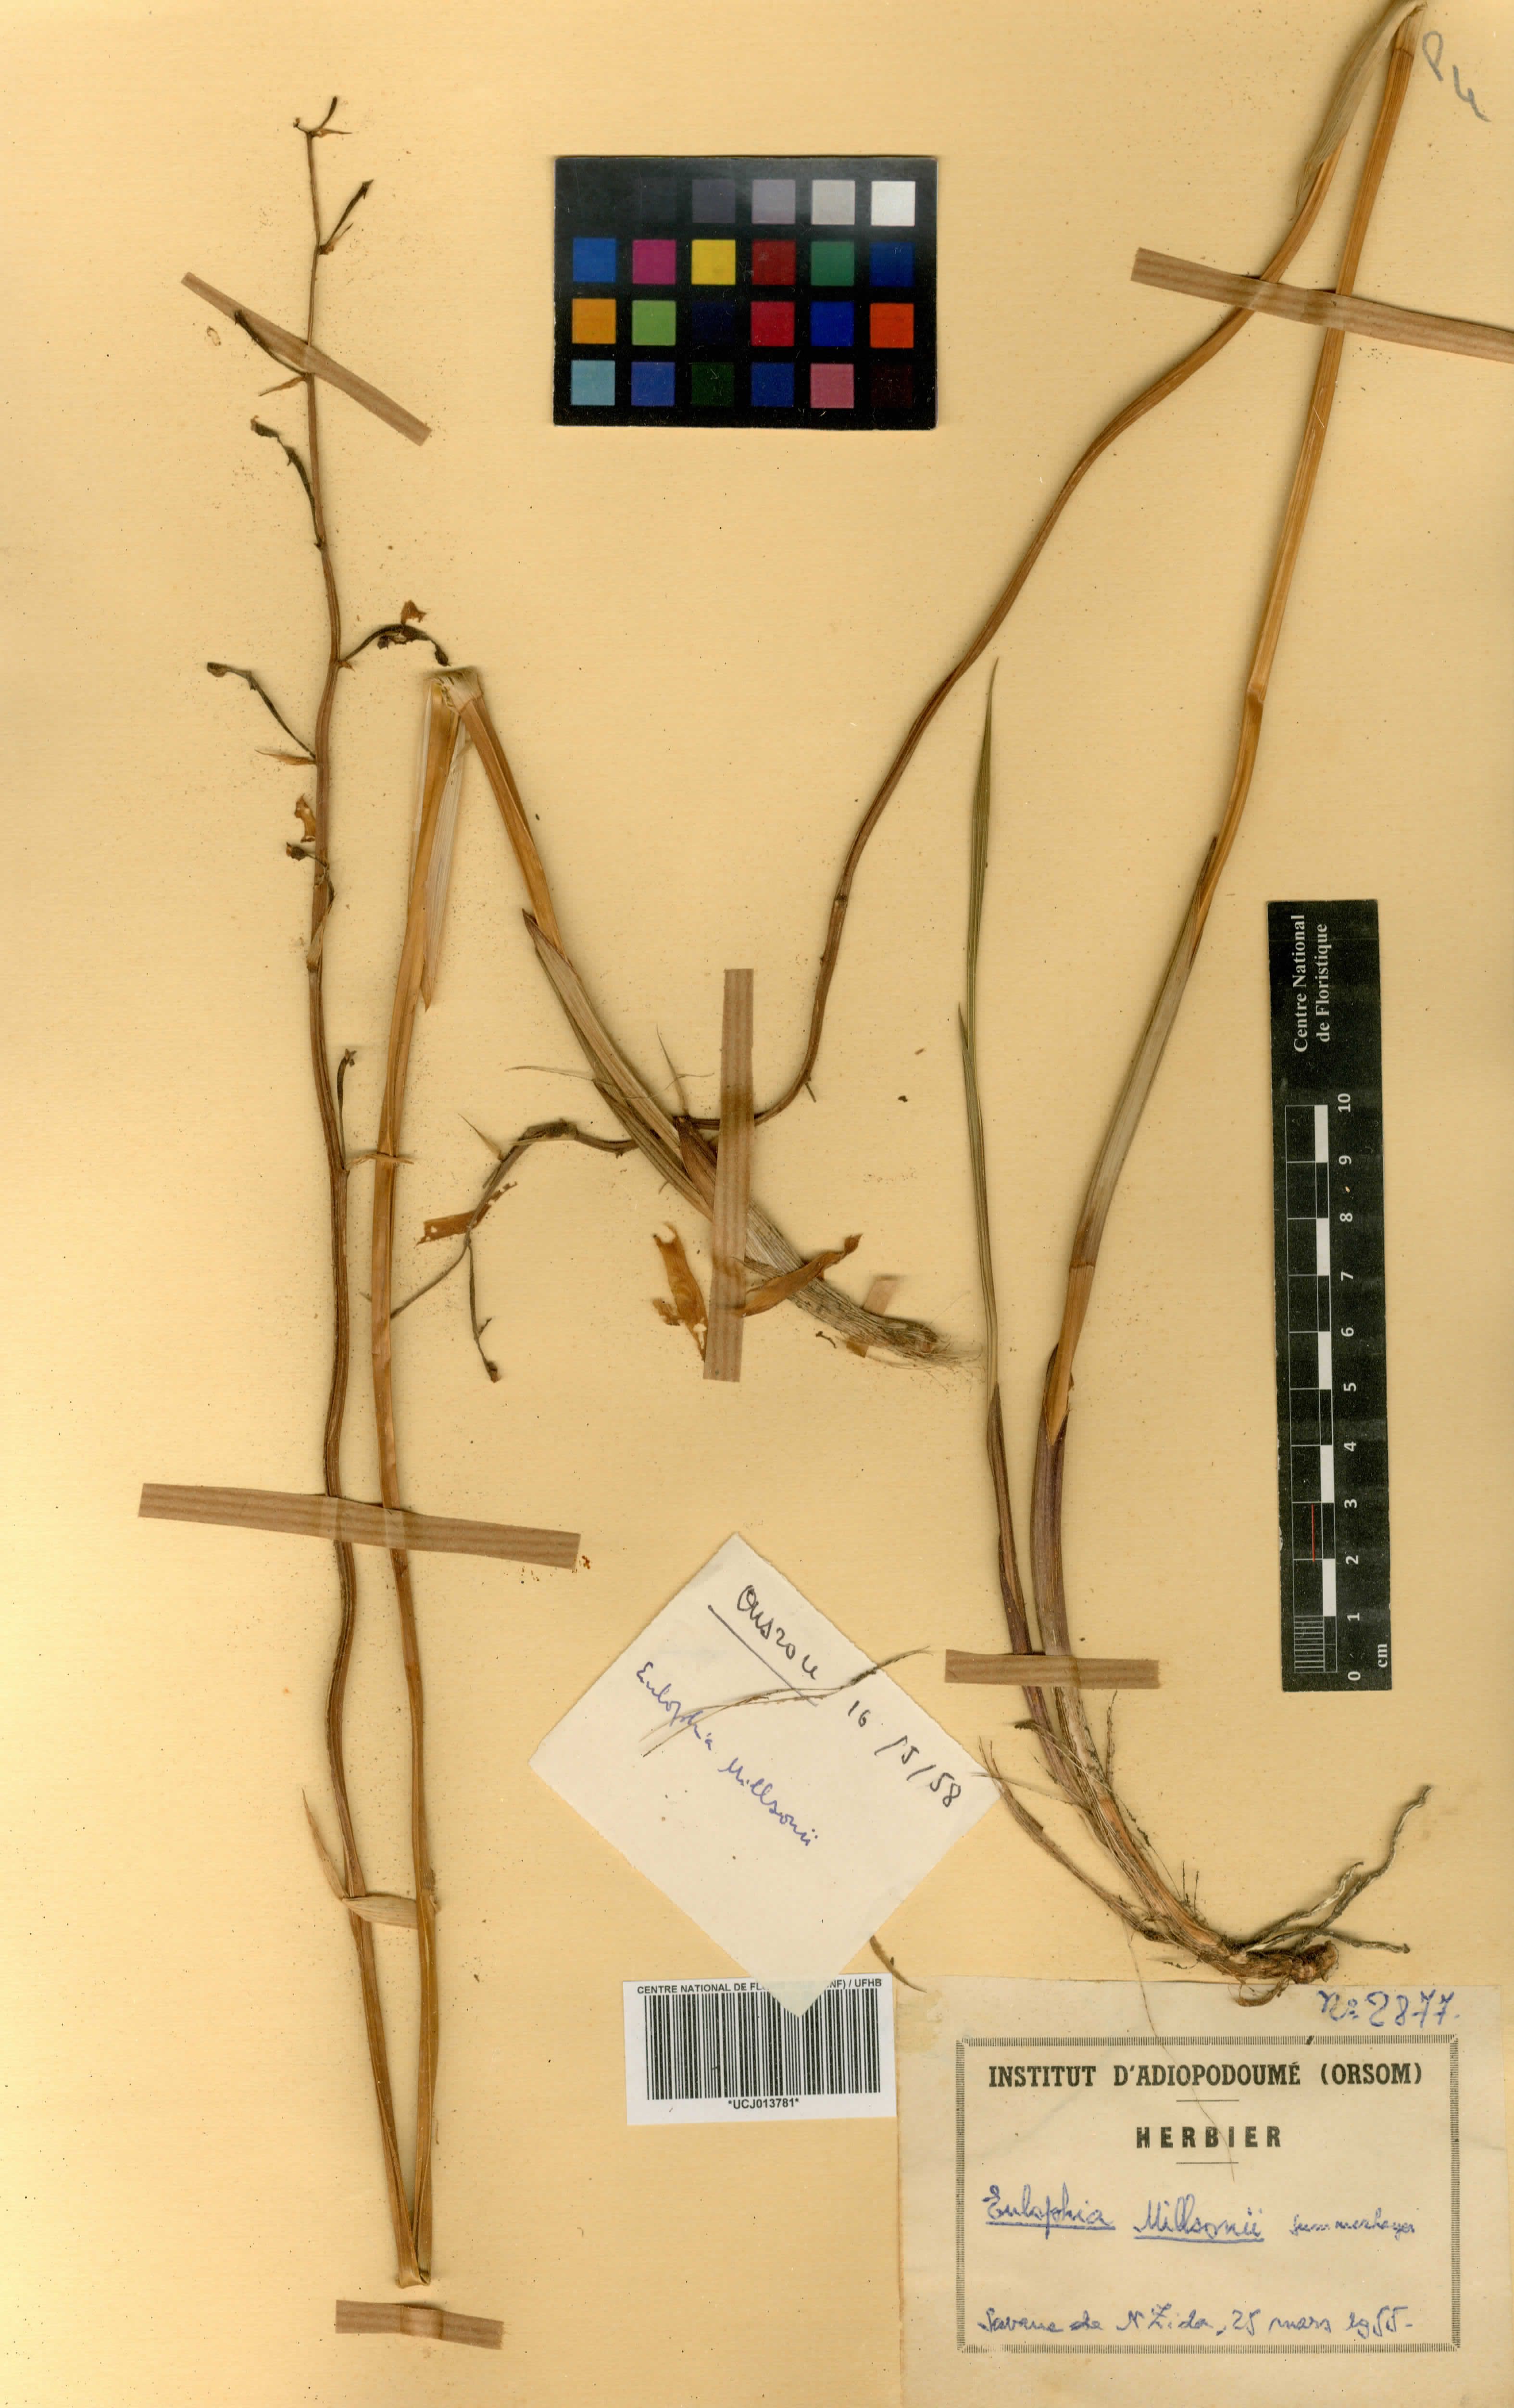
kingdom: Plantae
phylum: Tracheophyta
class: Liliopsida
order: Asparagales
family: Orchidaceae
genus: Eulophia
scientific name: Eulophia flavopurpurea
